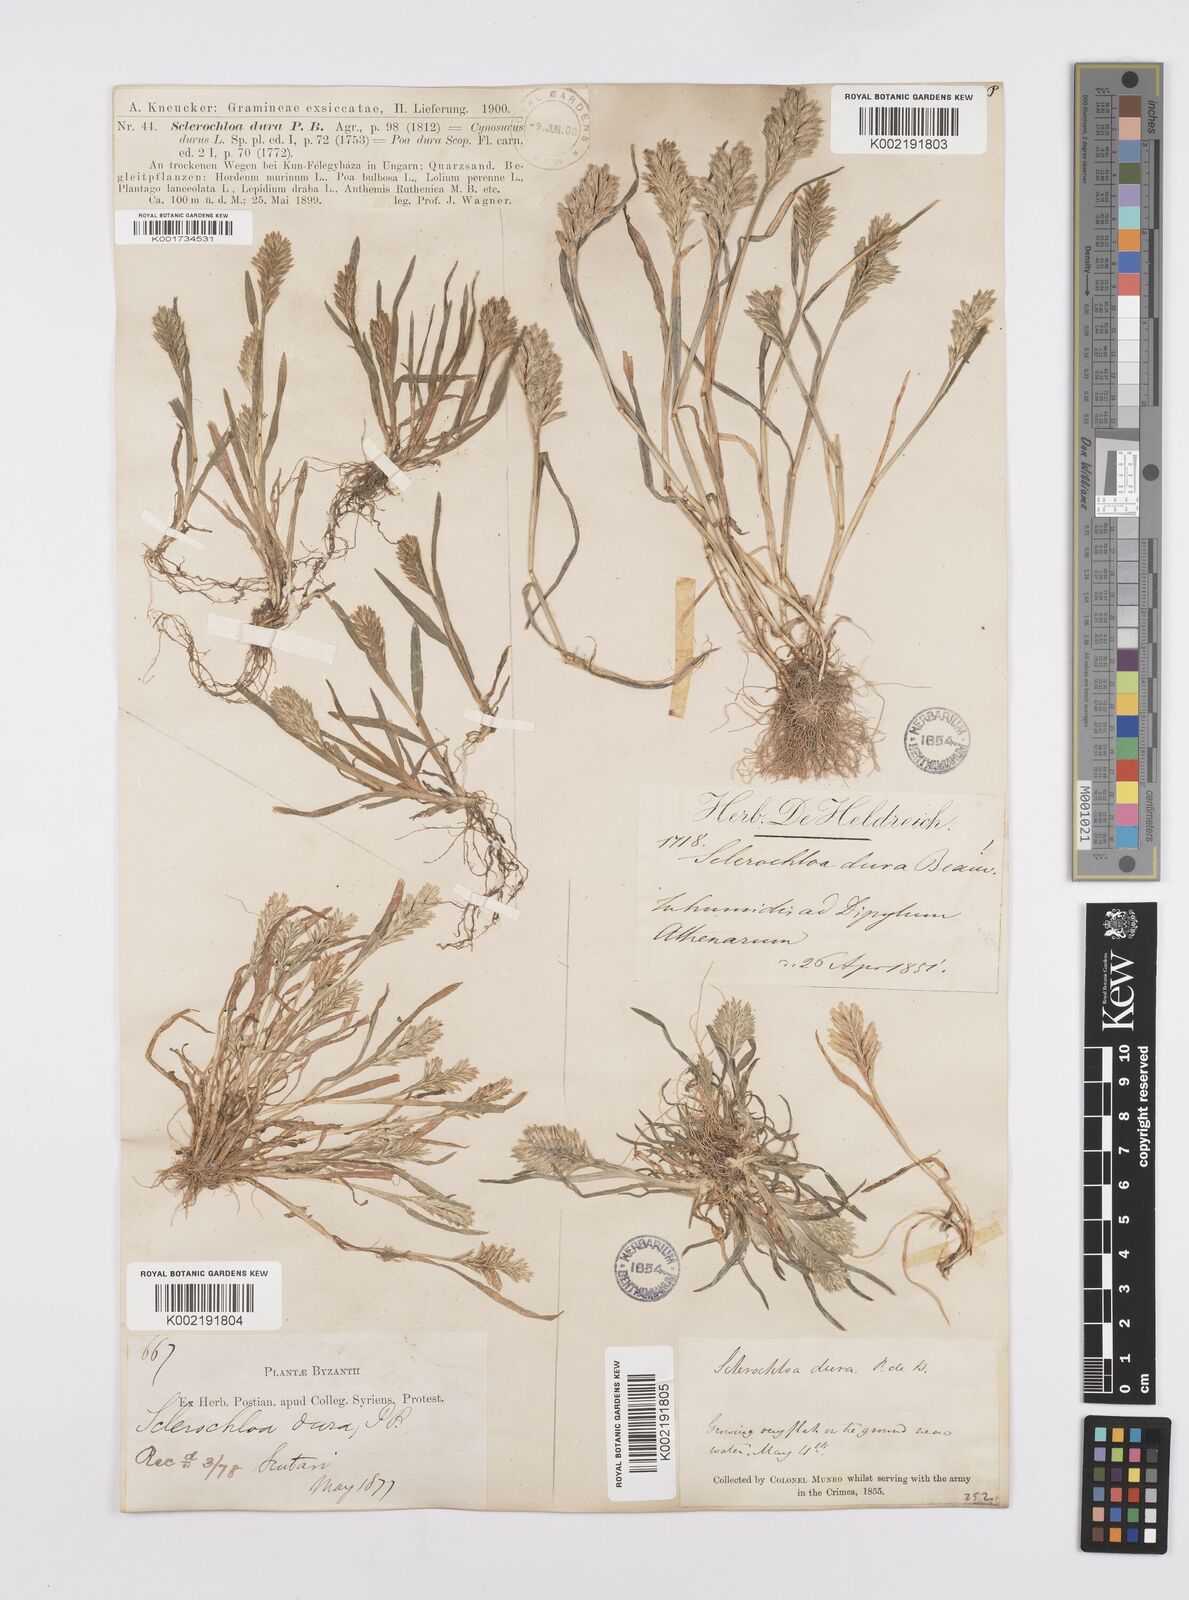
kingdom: Plantae
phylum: Tracheophyta
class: Liliopsida
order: Poales
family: Poaceae
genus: Sclerochloa
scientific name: Sclerochloa dura
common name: Common hardgrass
